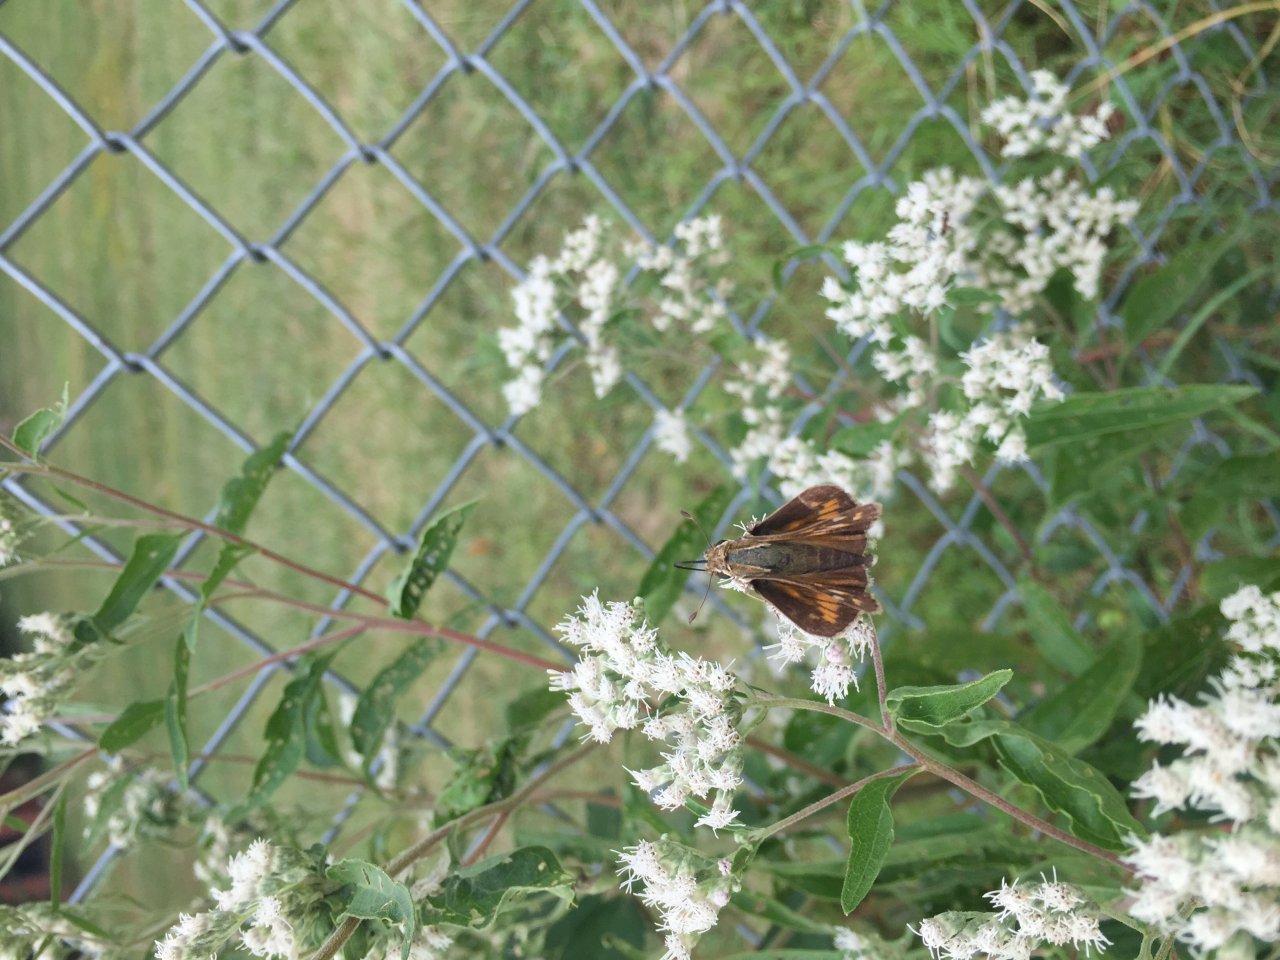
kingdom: Animalia
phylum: Arthropoda
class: Insecta
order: Lepidoptera
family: Hesperiidae
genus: Atalopedes
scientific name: Atalopedes campestris
